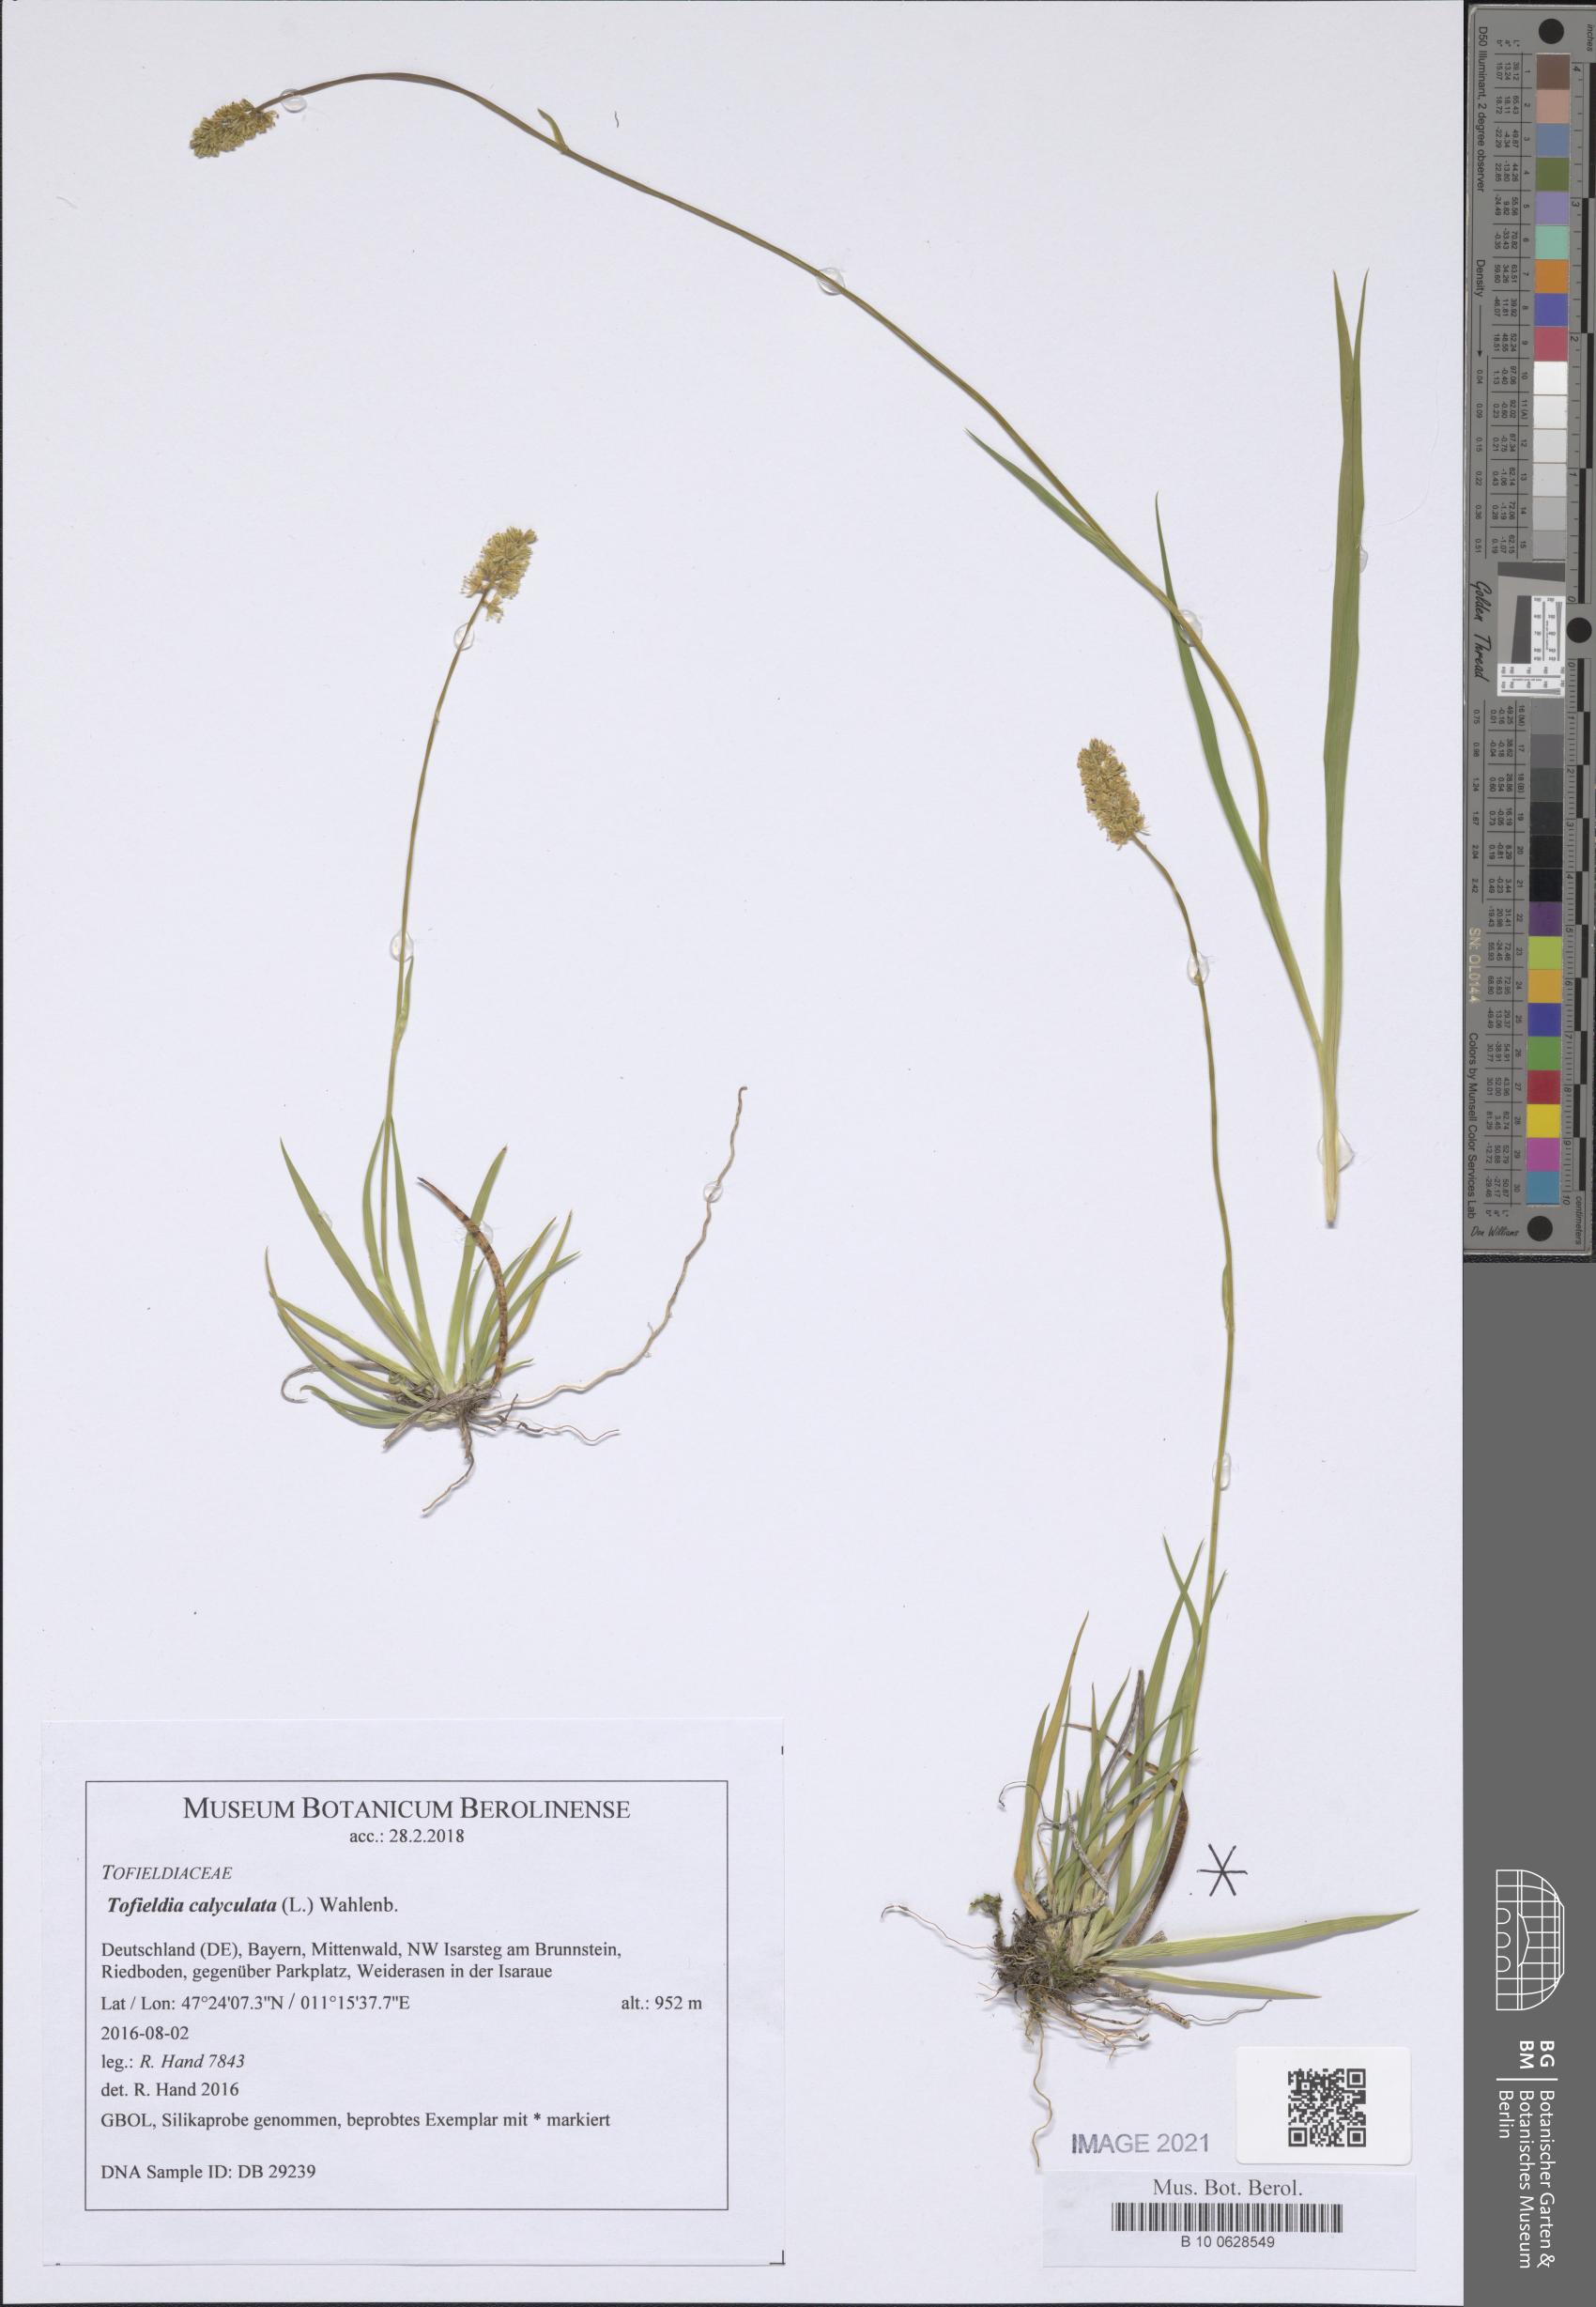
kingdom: Plantae
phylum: Tracheophyta
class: Liliopsida
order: Alismatales
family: Tofieldiaceae
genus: Tofieldia
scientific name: Tofieldia calyculata
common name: German-asphodel
